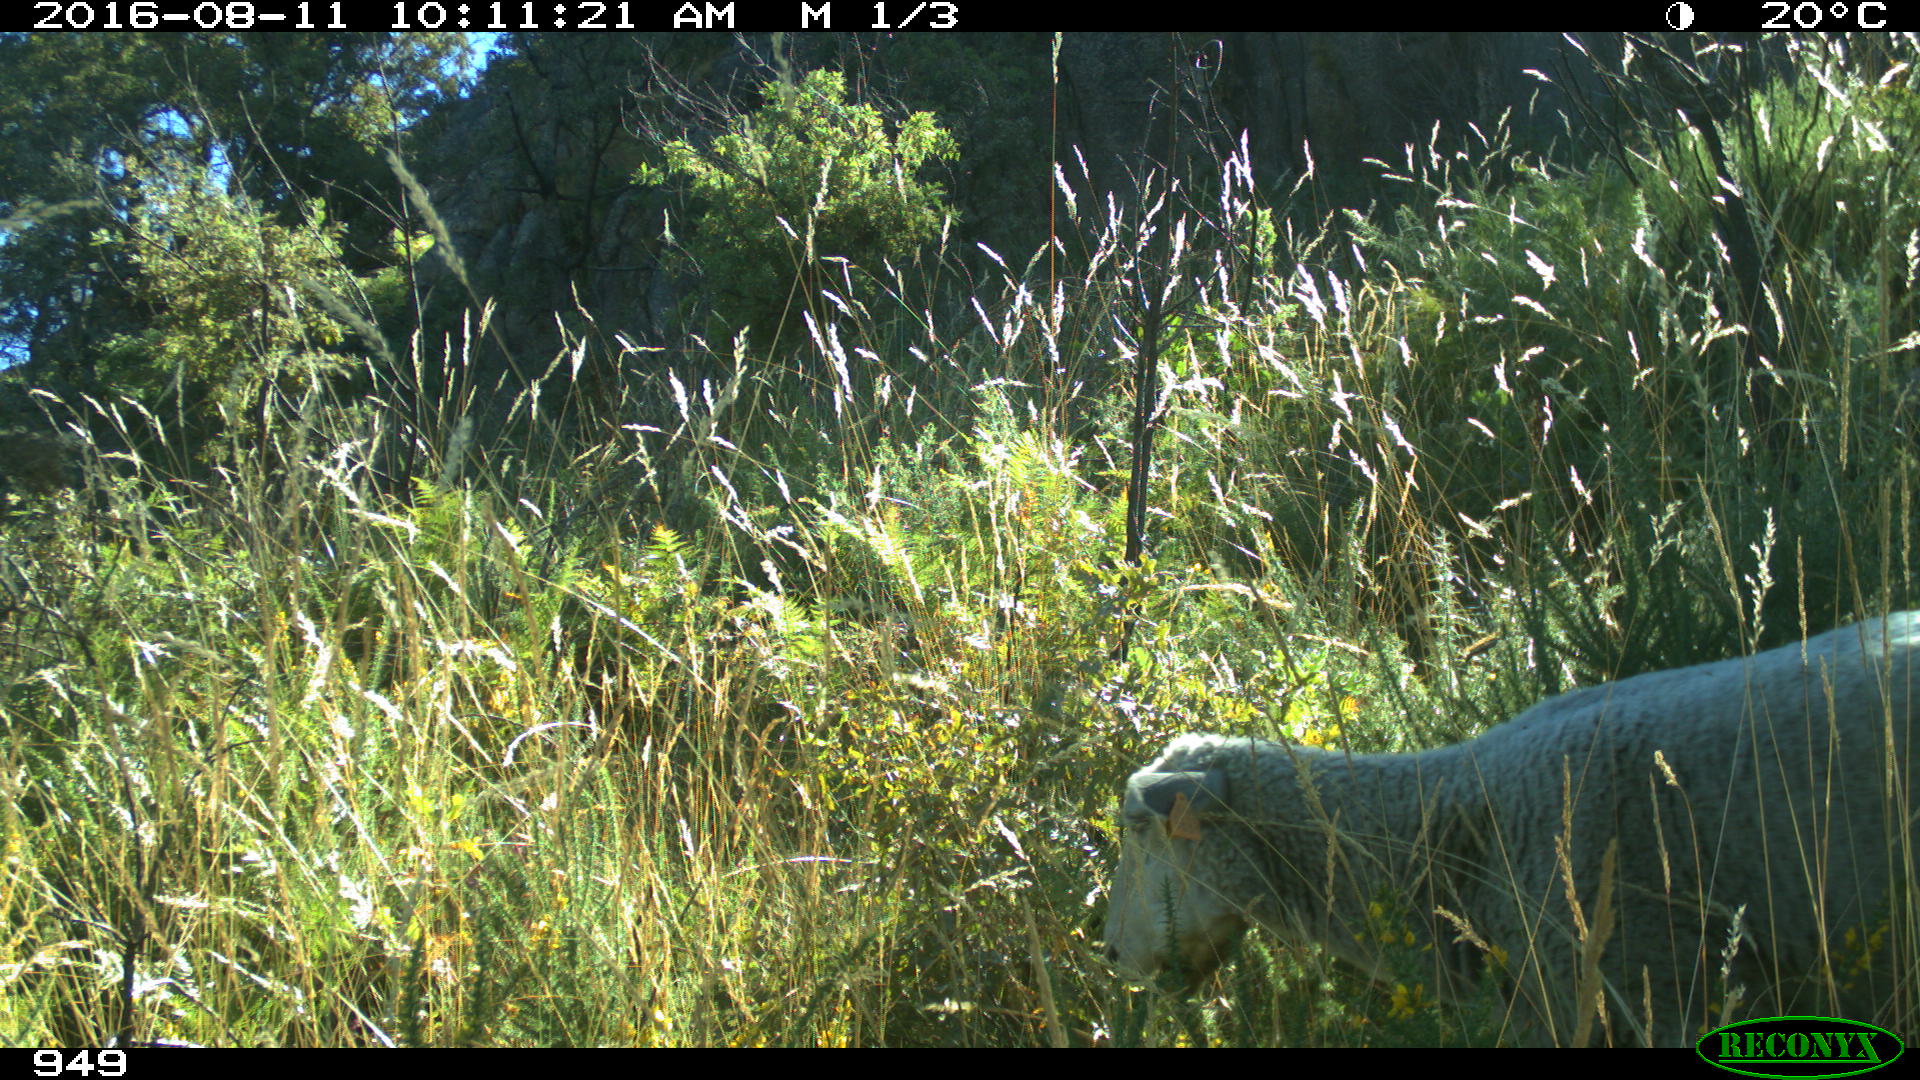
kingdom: Animalia
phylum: Chordata
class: Mammalia
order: Artiodactyla
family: Bovidae
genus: Ovis
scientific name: Ovis aries
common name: Domestic sheep
